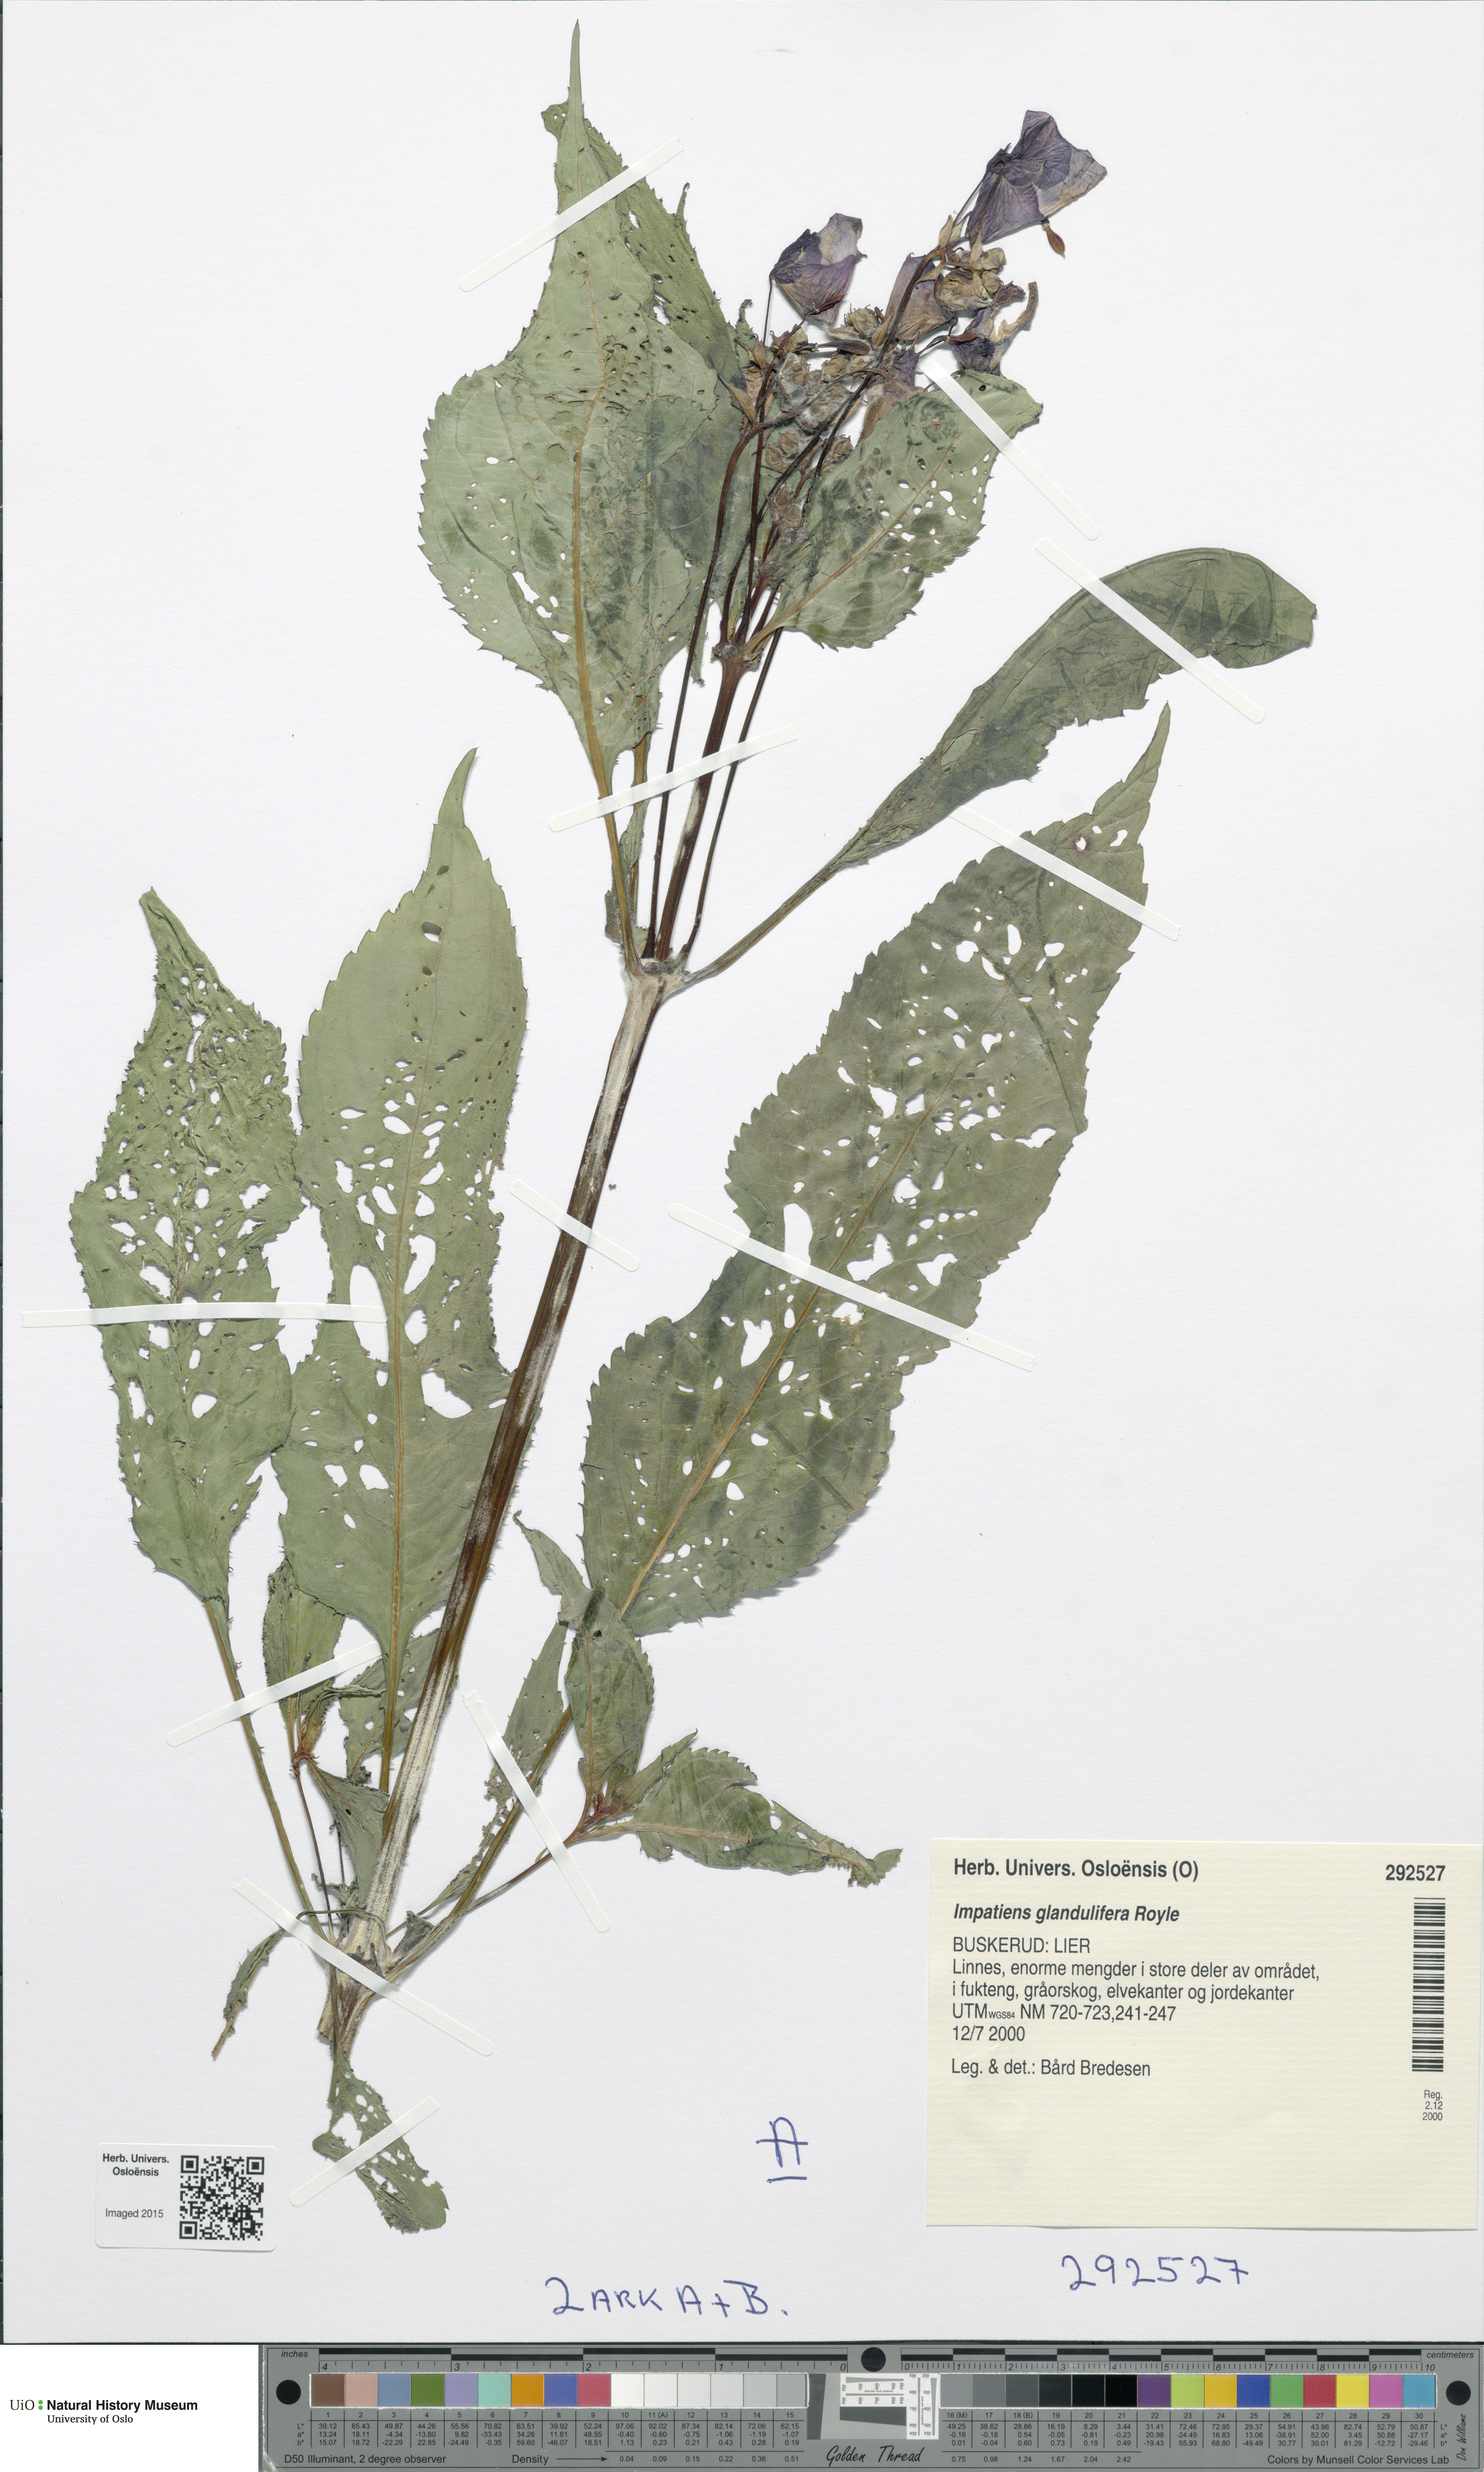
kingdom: Plantae
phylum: Tracheophyta
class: Magnoliopsida
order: Ericales
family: Balsaminaceae
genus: Impatiens
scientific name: Impatiens glandulifera
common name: Himalayan balsam
